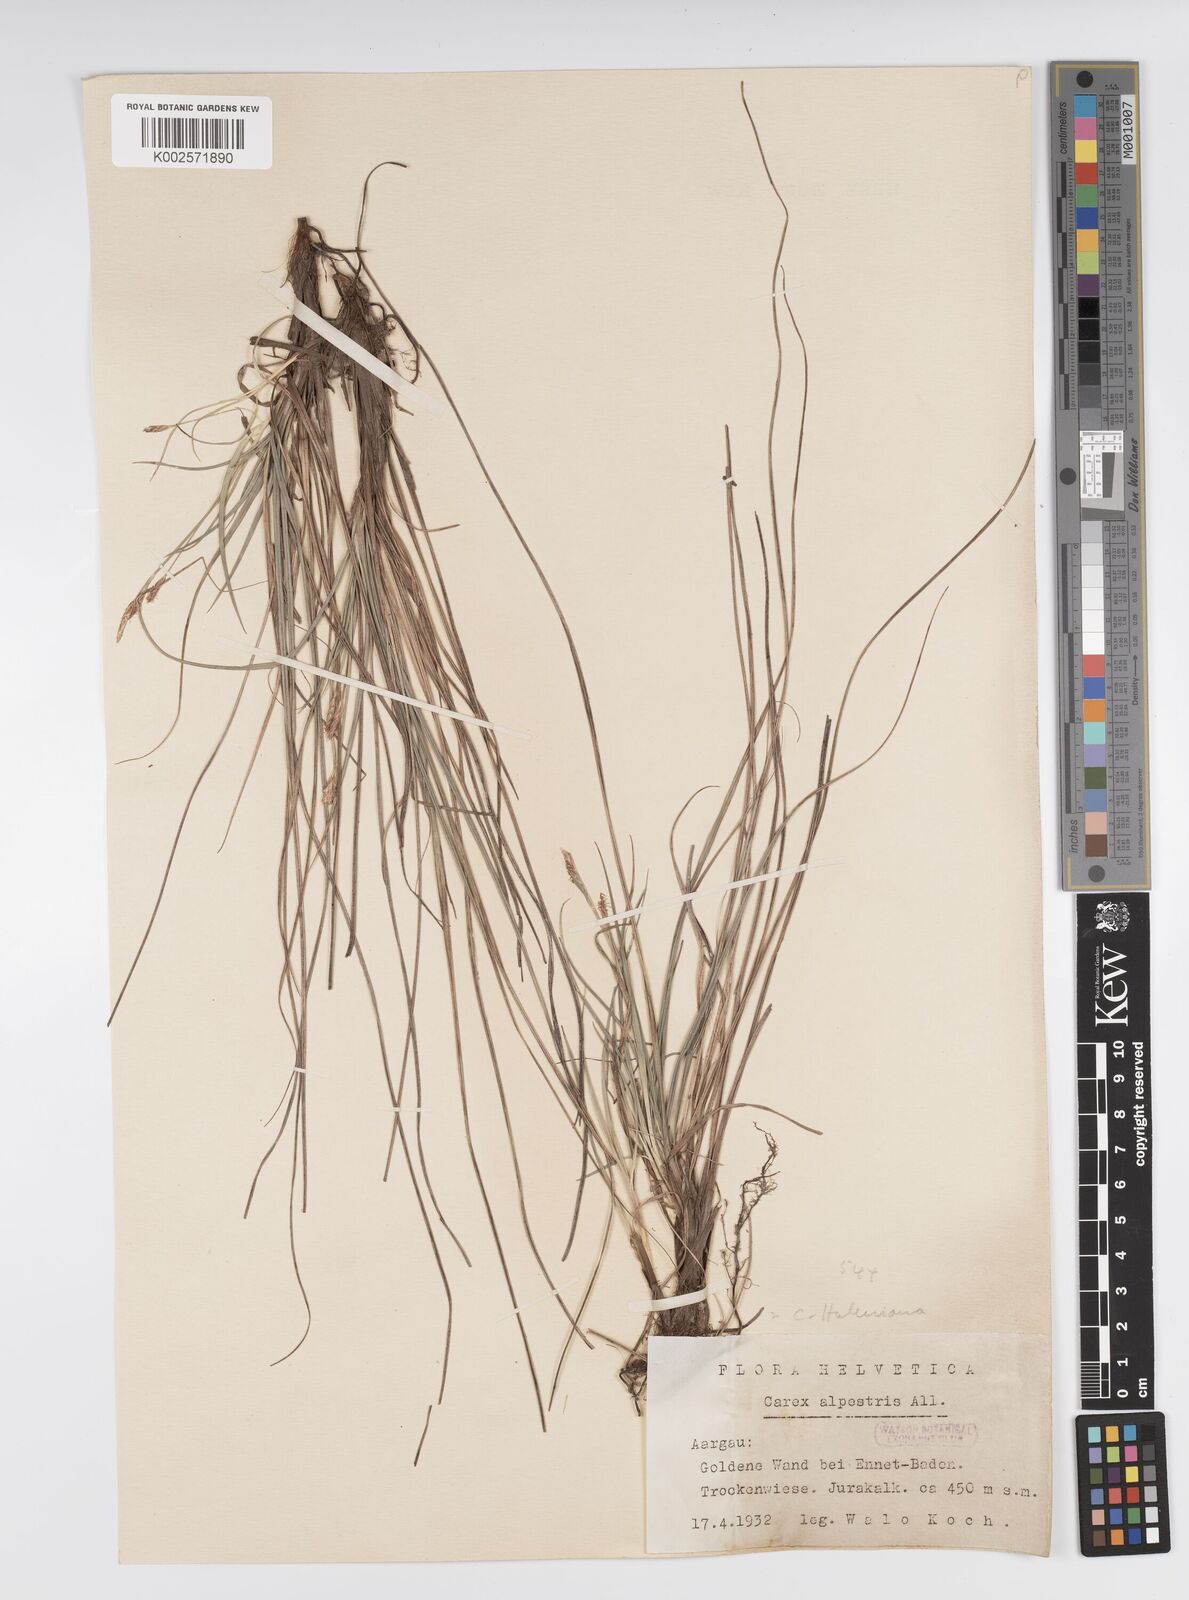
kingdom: Plantae
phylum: Tracheophyta
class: Liliopsida
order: Poales
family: Cyperaceae
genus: Carex
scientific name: Carex halleriana
